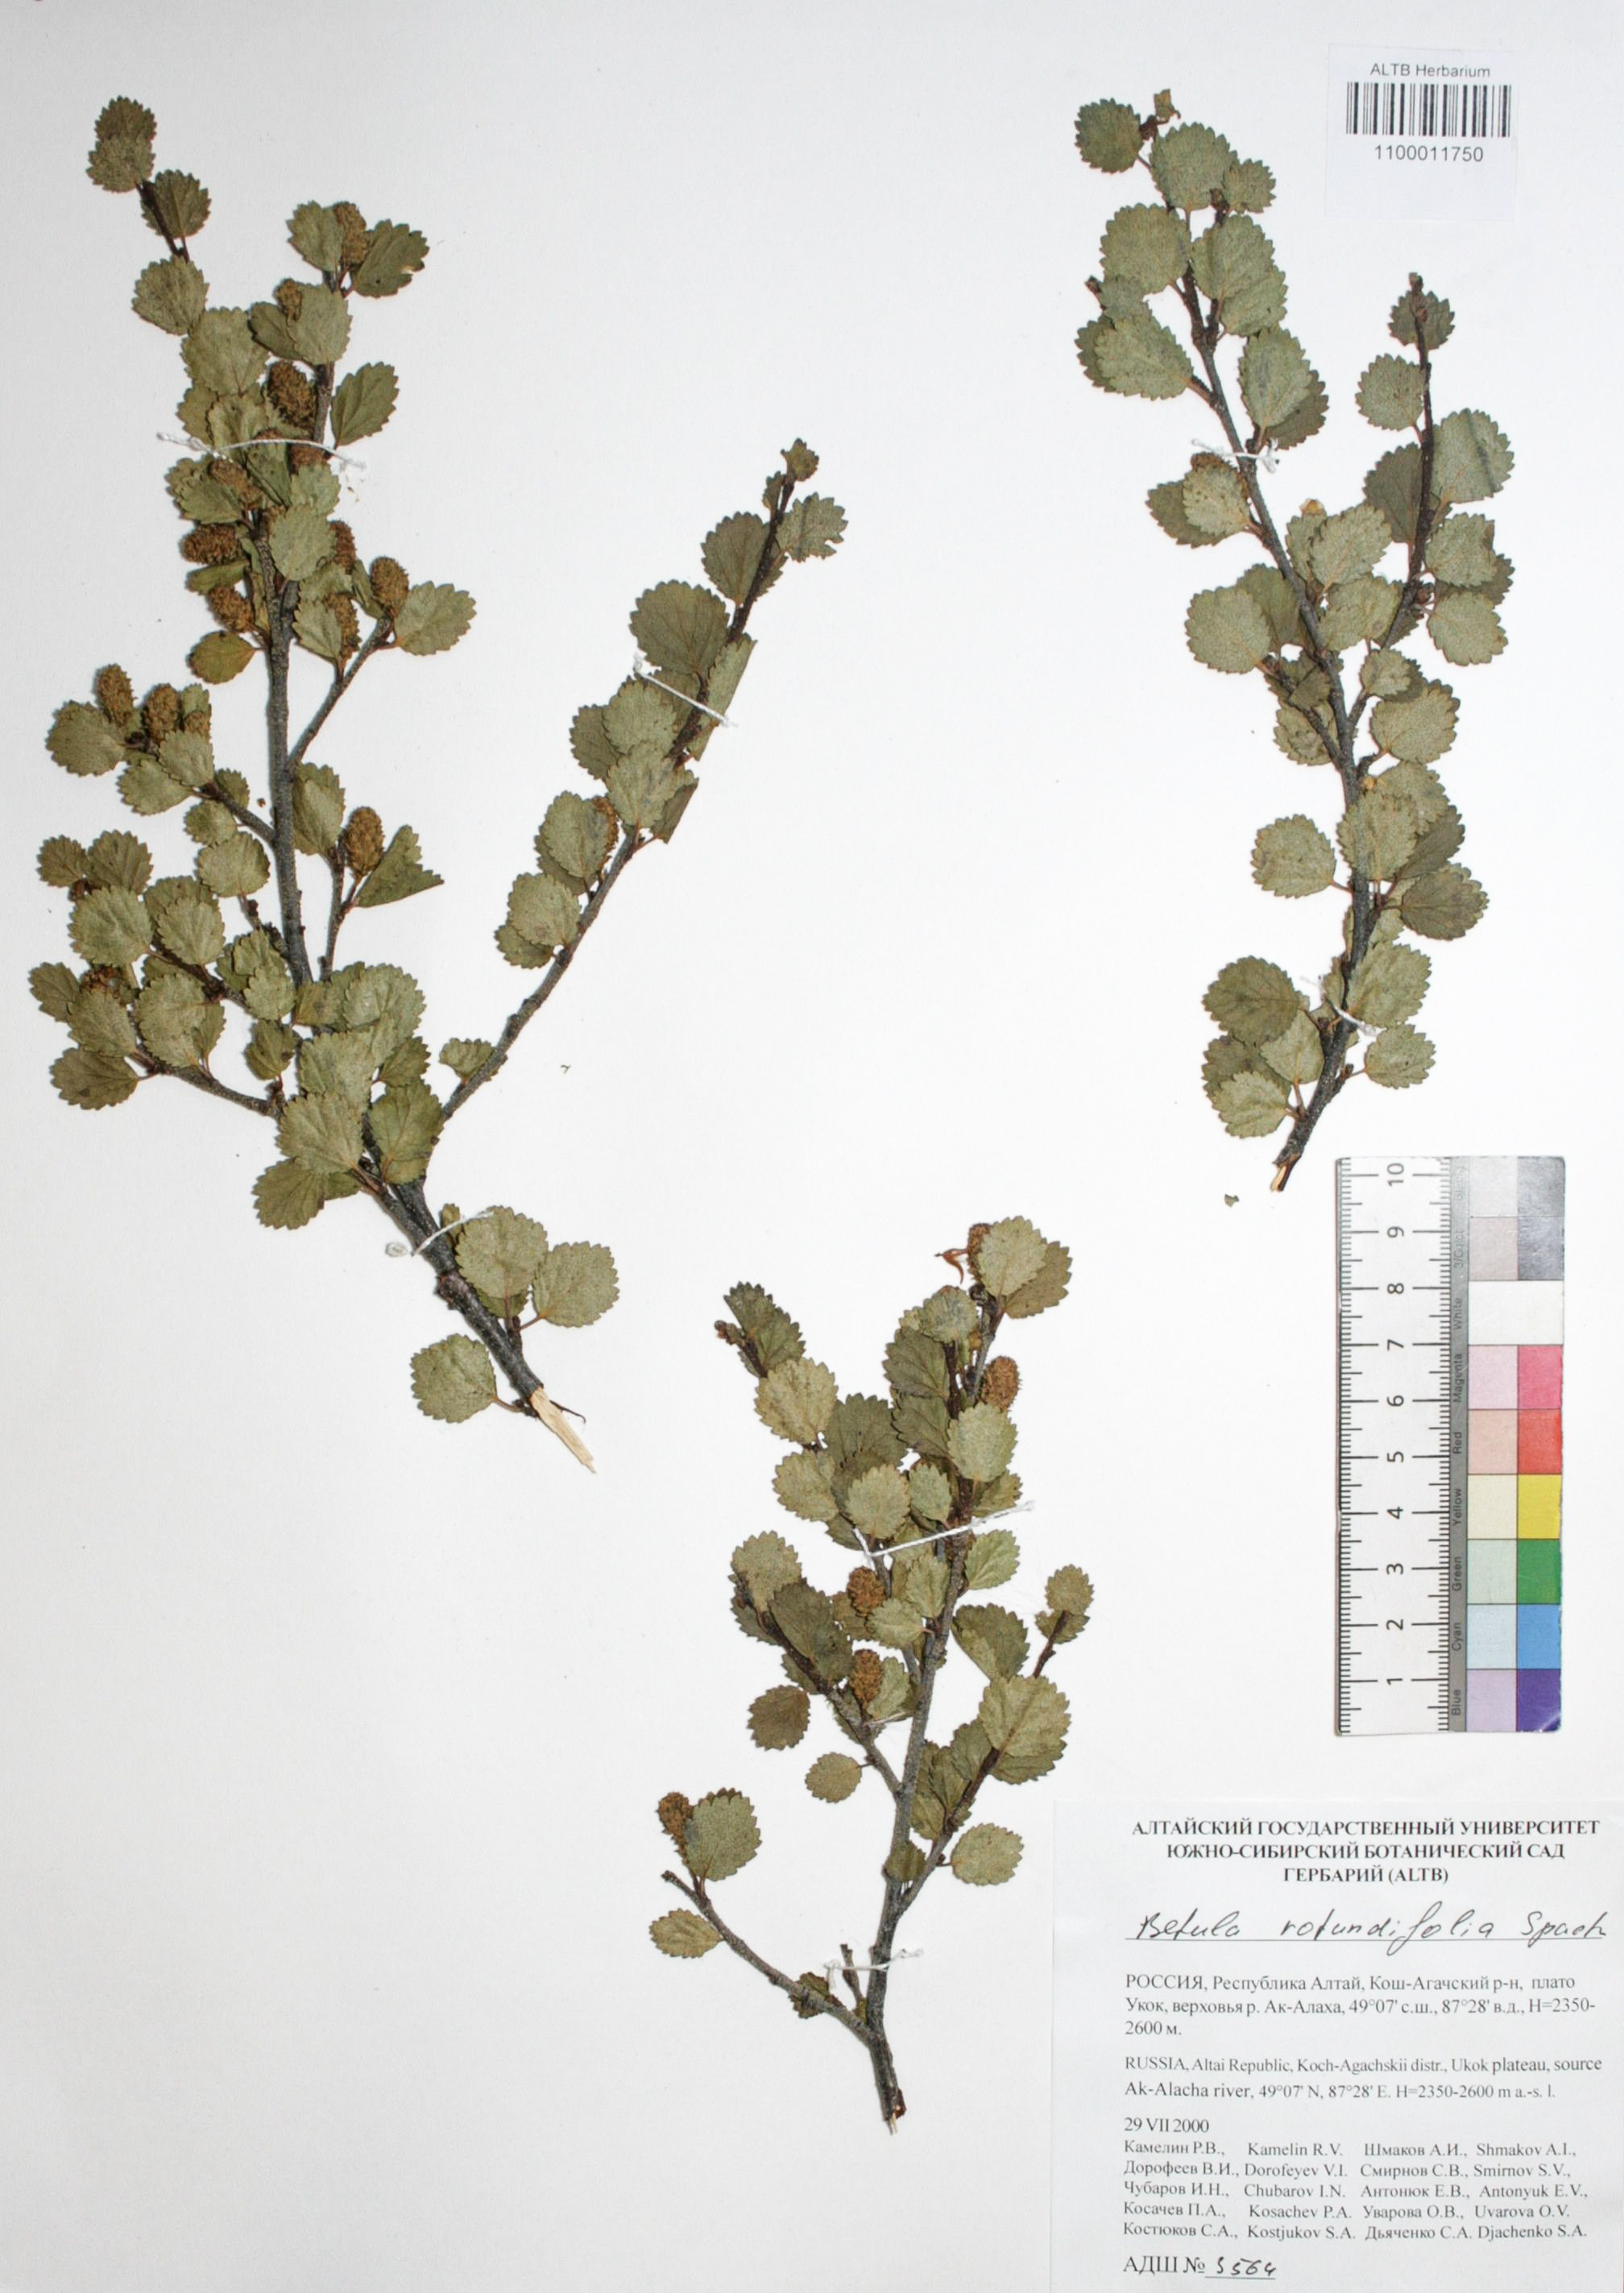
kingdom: Plantae
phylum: Tracheophyta
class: Magnoliopsida
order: Fagales
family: Betulaceae
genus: Betula
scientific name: Betula glandulosa
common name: Dwarf birch
